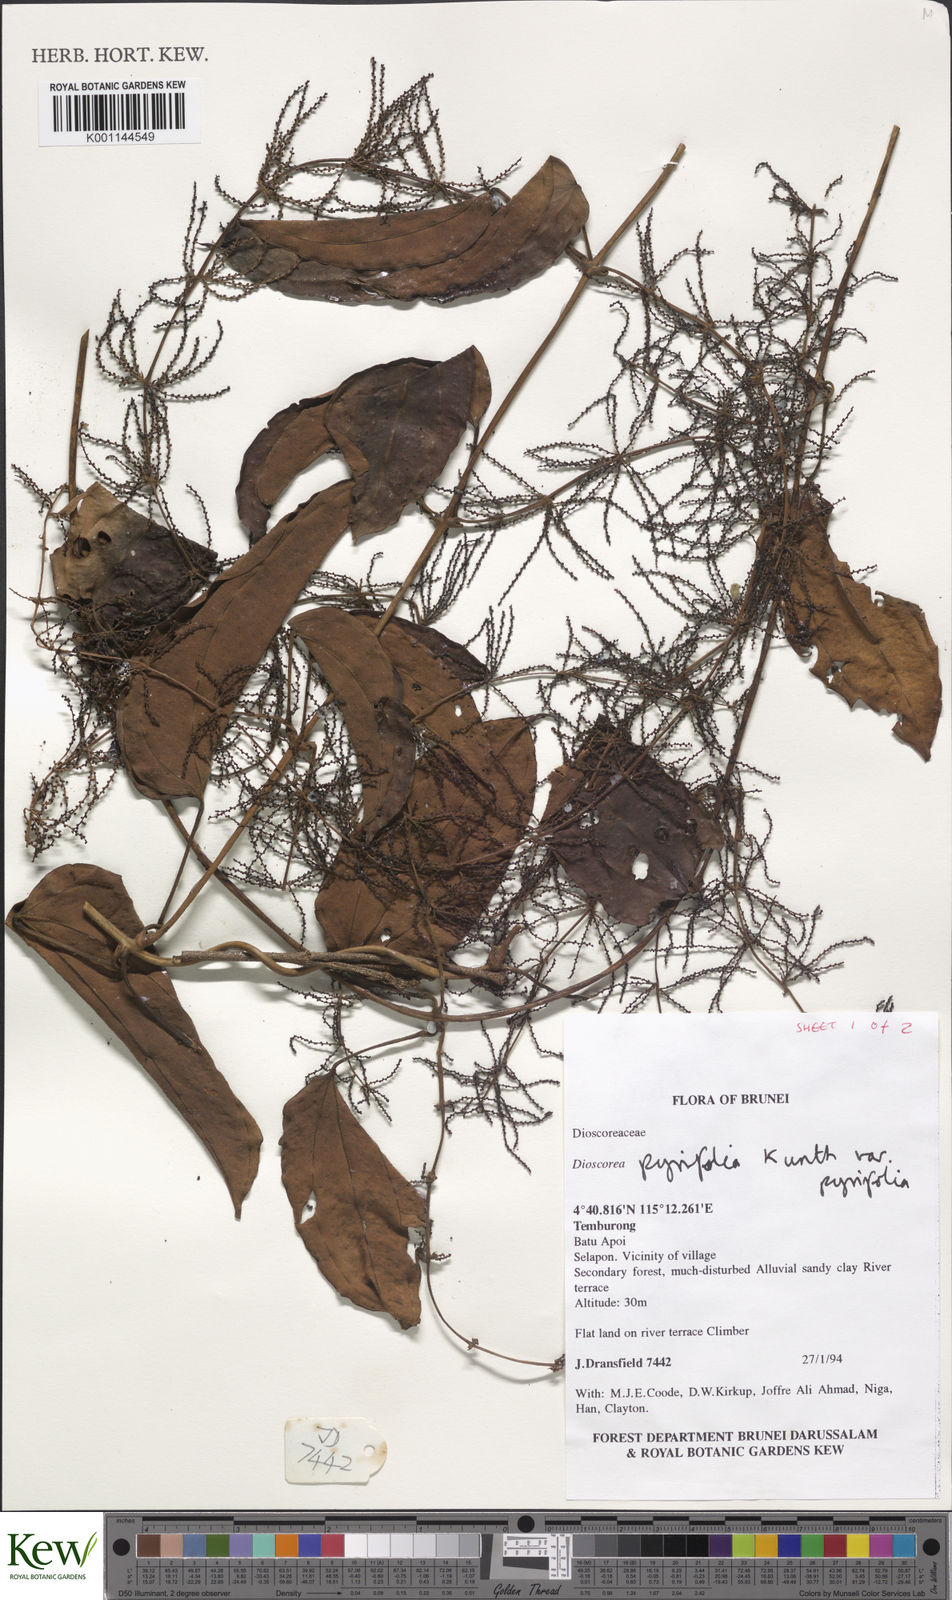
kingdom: Plantae
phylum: Tracheophyta
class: Liliopsida
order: Dioscoreales
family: Dioscoreaceae
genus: Dioscorea
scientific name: Dioscorea pyrifolia
